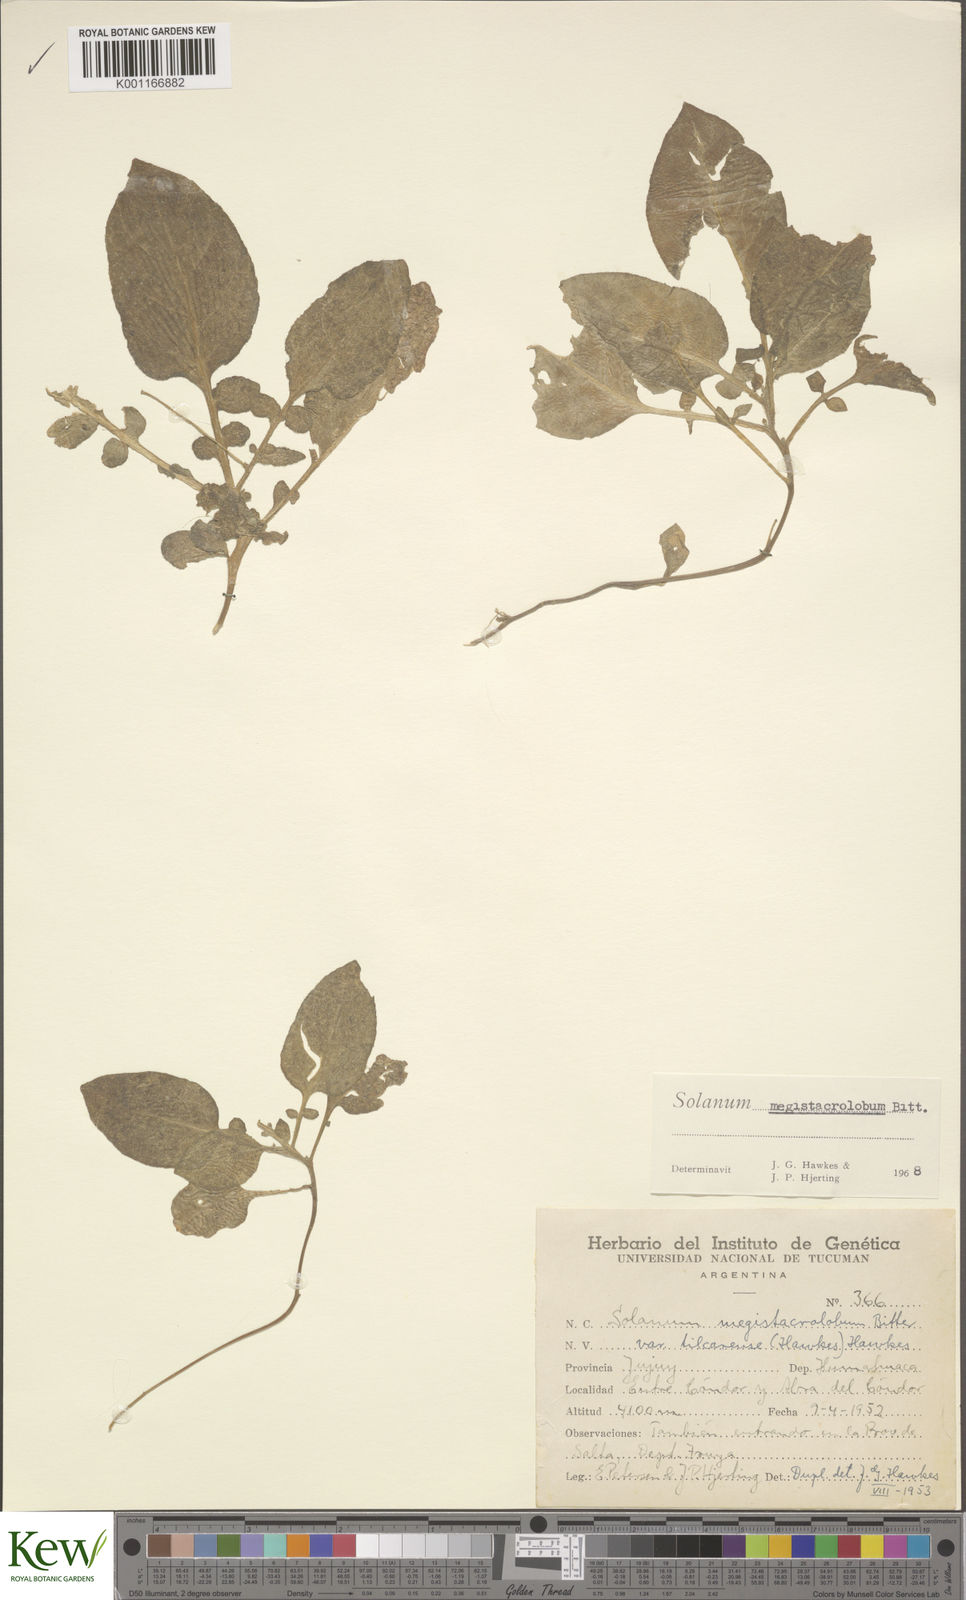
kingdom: Plantae
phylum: Tracheophyta
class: Magnoliopsida
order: Solanales
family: Solanaceae
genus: Solanum
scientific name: Solanum boliviense
